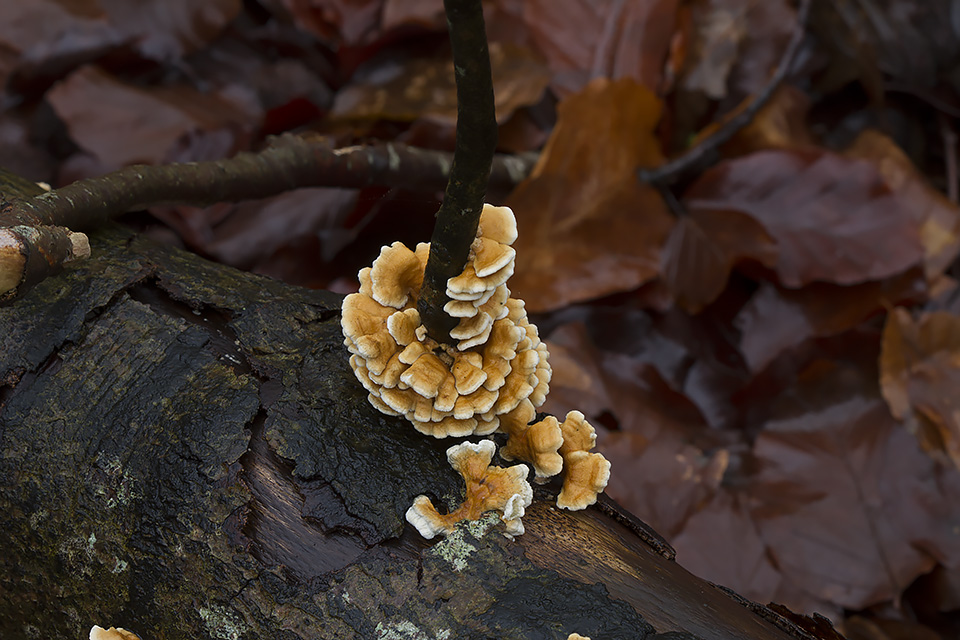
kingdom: Fungi
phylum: Basidiomycota
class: Agaricomycetes
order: Amylocorticiales
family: Amylocorticiaceae
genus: Plicaturopsis
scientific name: Plicaturopsis crispa
